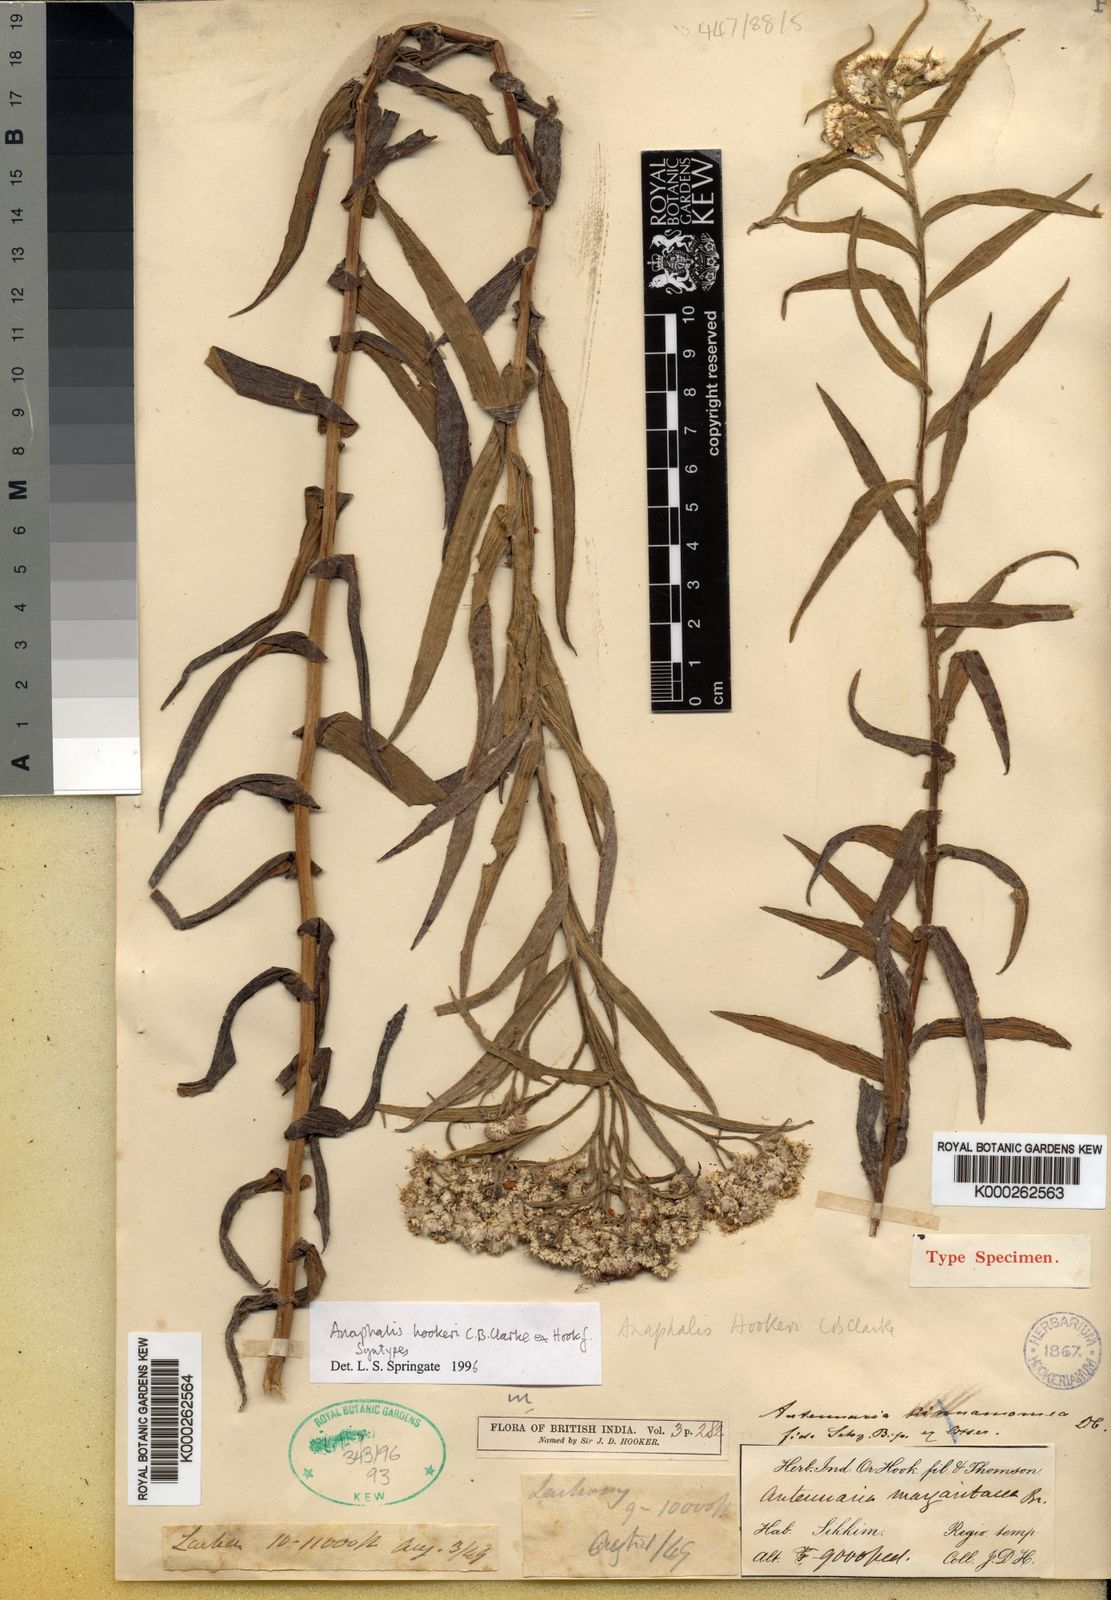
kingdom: Plantae
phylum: Tracheophyta
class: Magnoliopsida
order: Asterales
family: Asteraceae
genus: Anaphalis
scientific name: Anaphalis
